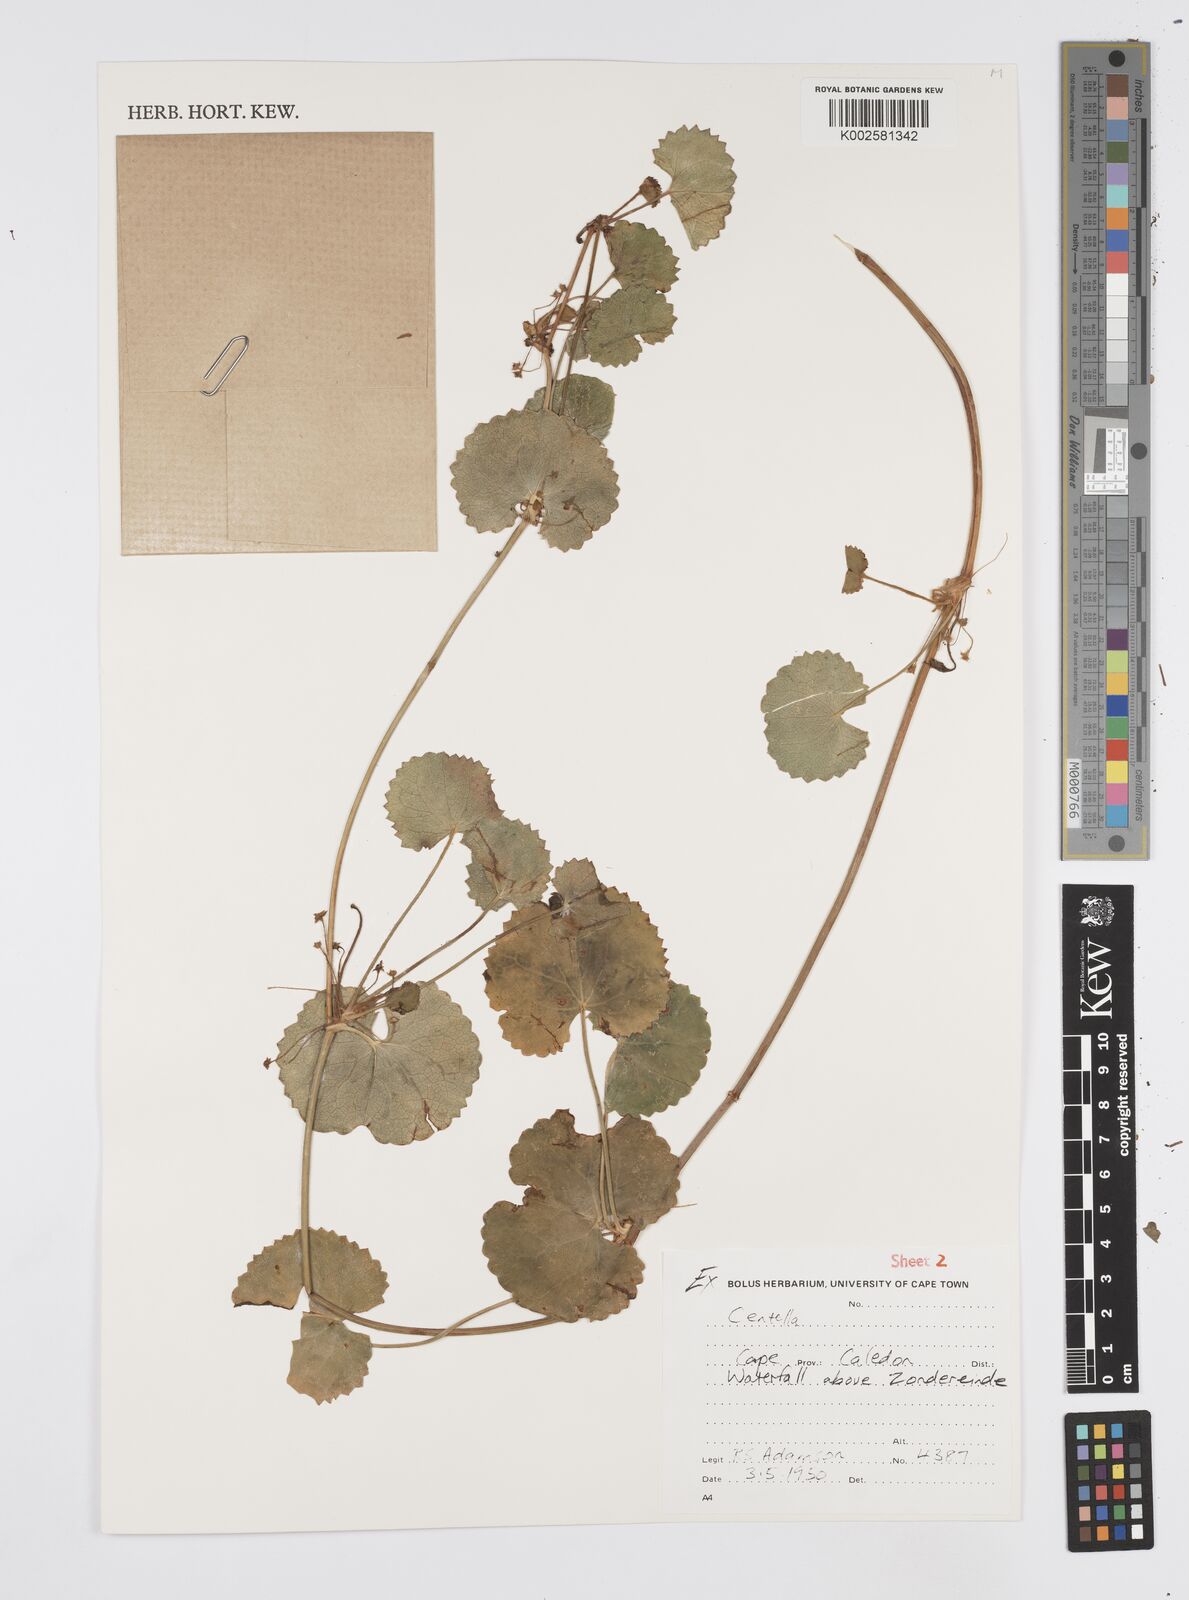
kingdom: Plantae
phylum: Tracheophyta
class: Magnoliopsida
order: Apiales
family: Apiaceae
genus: Centella
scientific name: Centella
